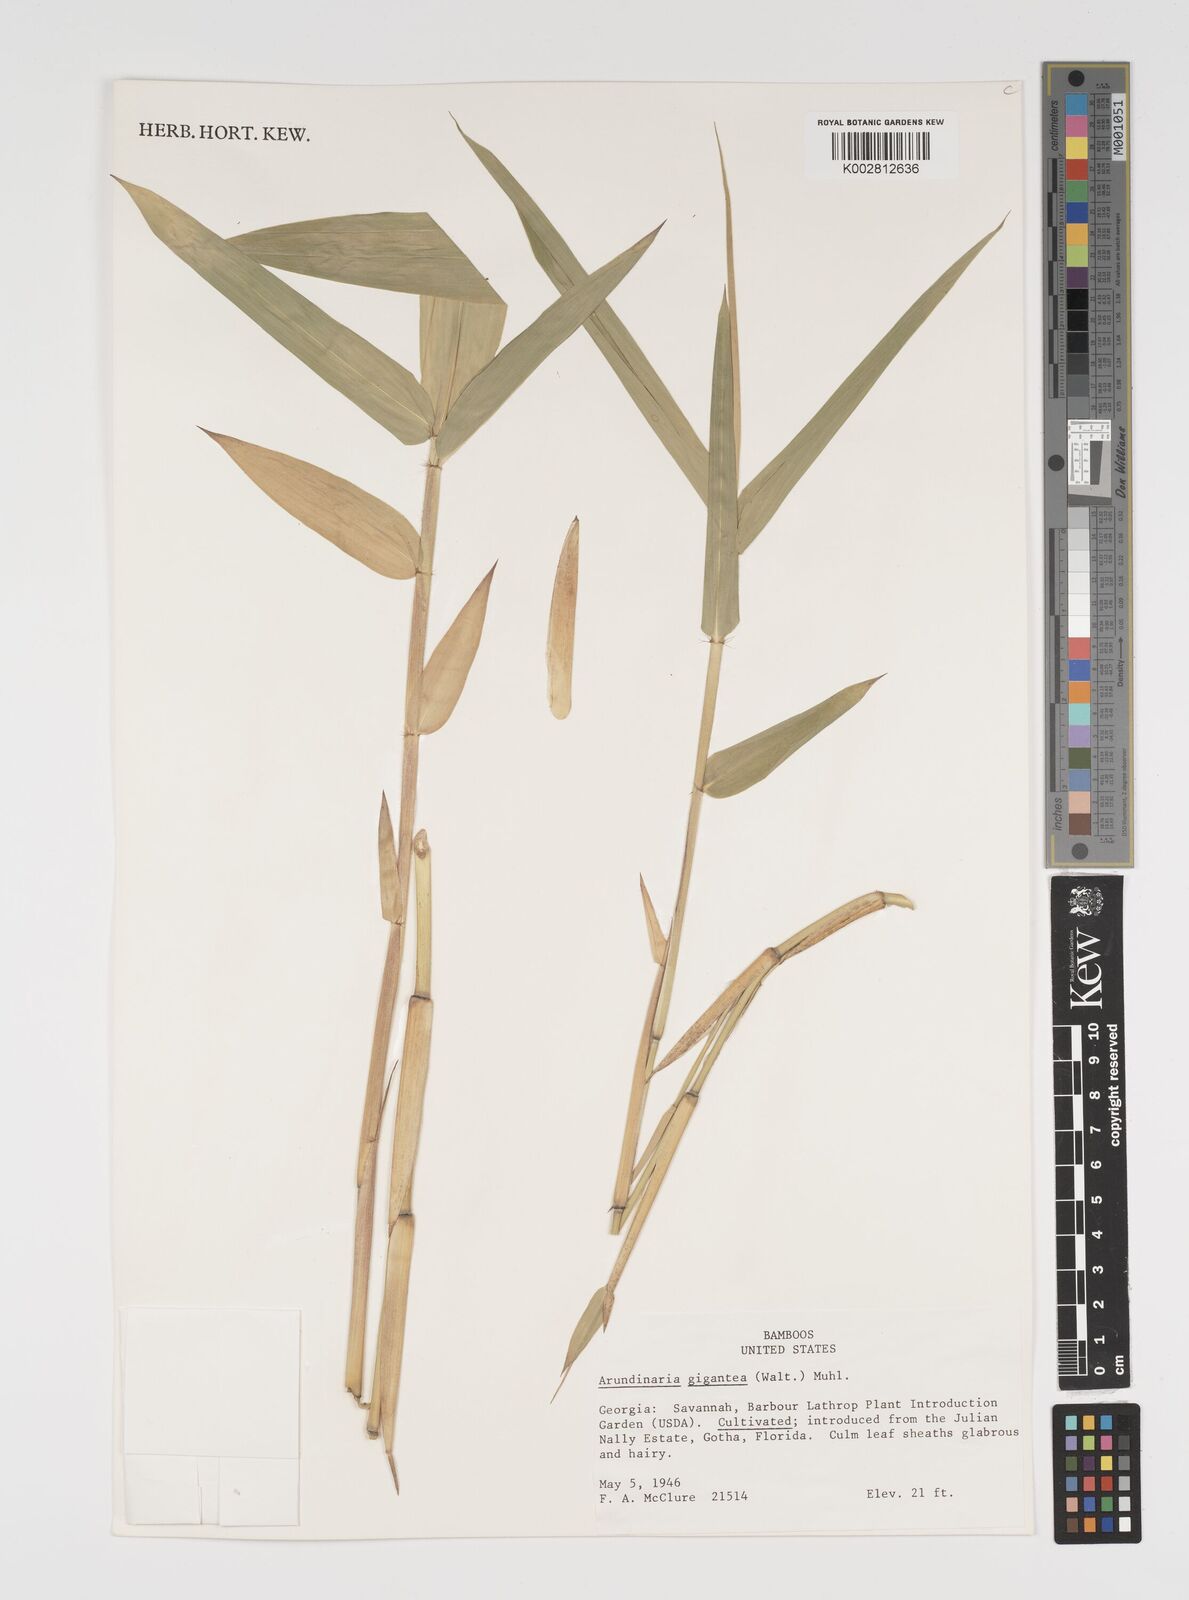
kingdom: Plantae
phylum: Tracheophyta
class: Liliopsida
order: Poales
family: Poaceae
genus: Arundinaria
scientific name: Arundinaria
